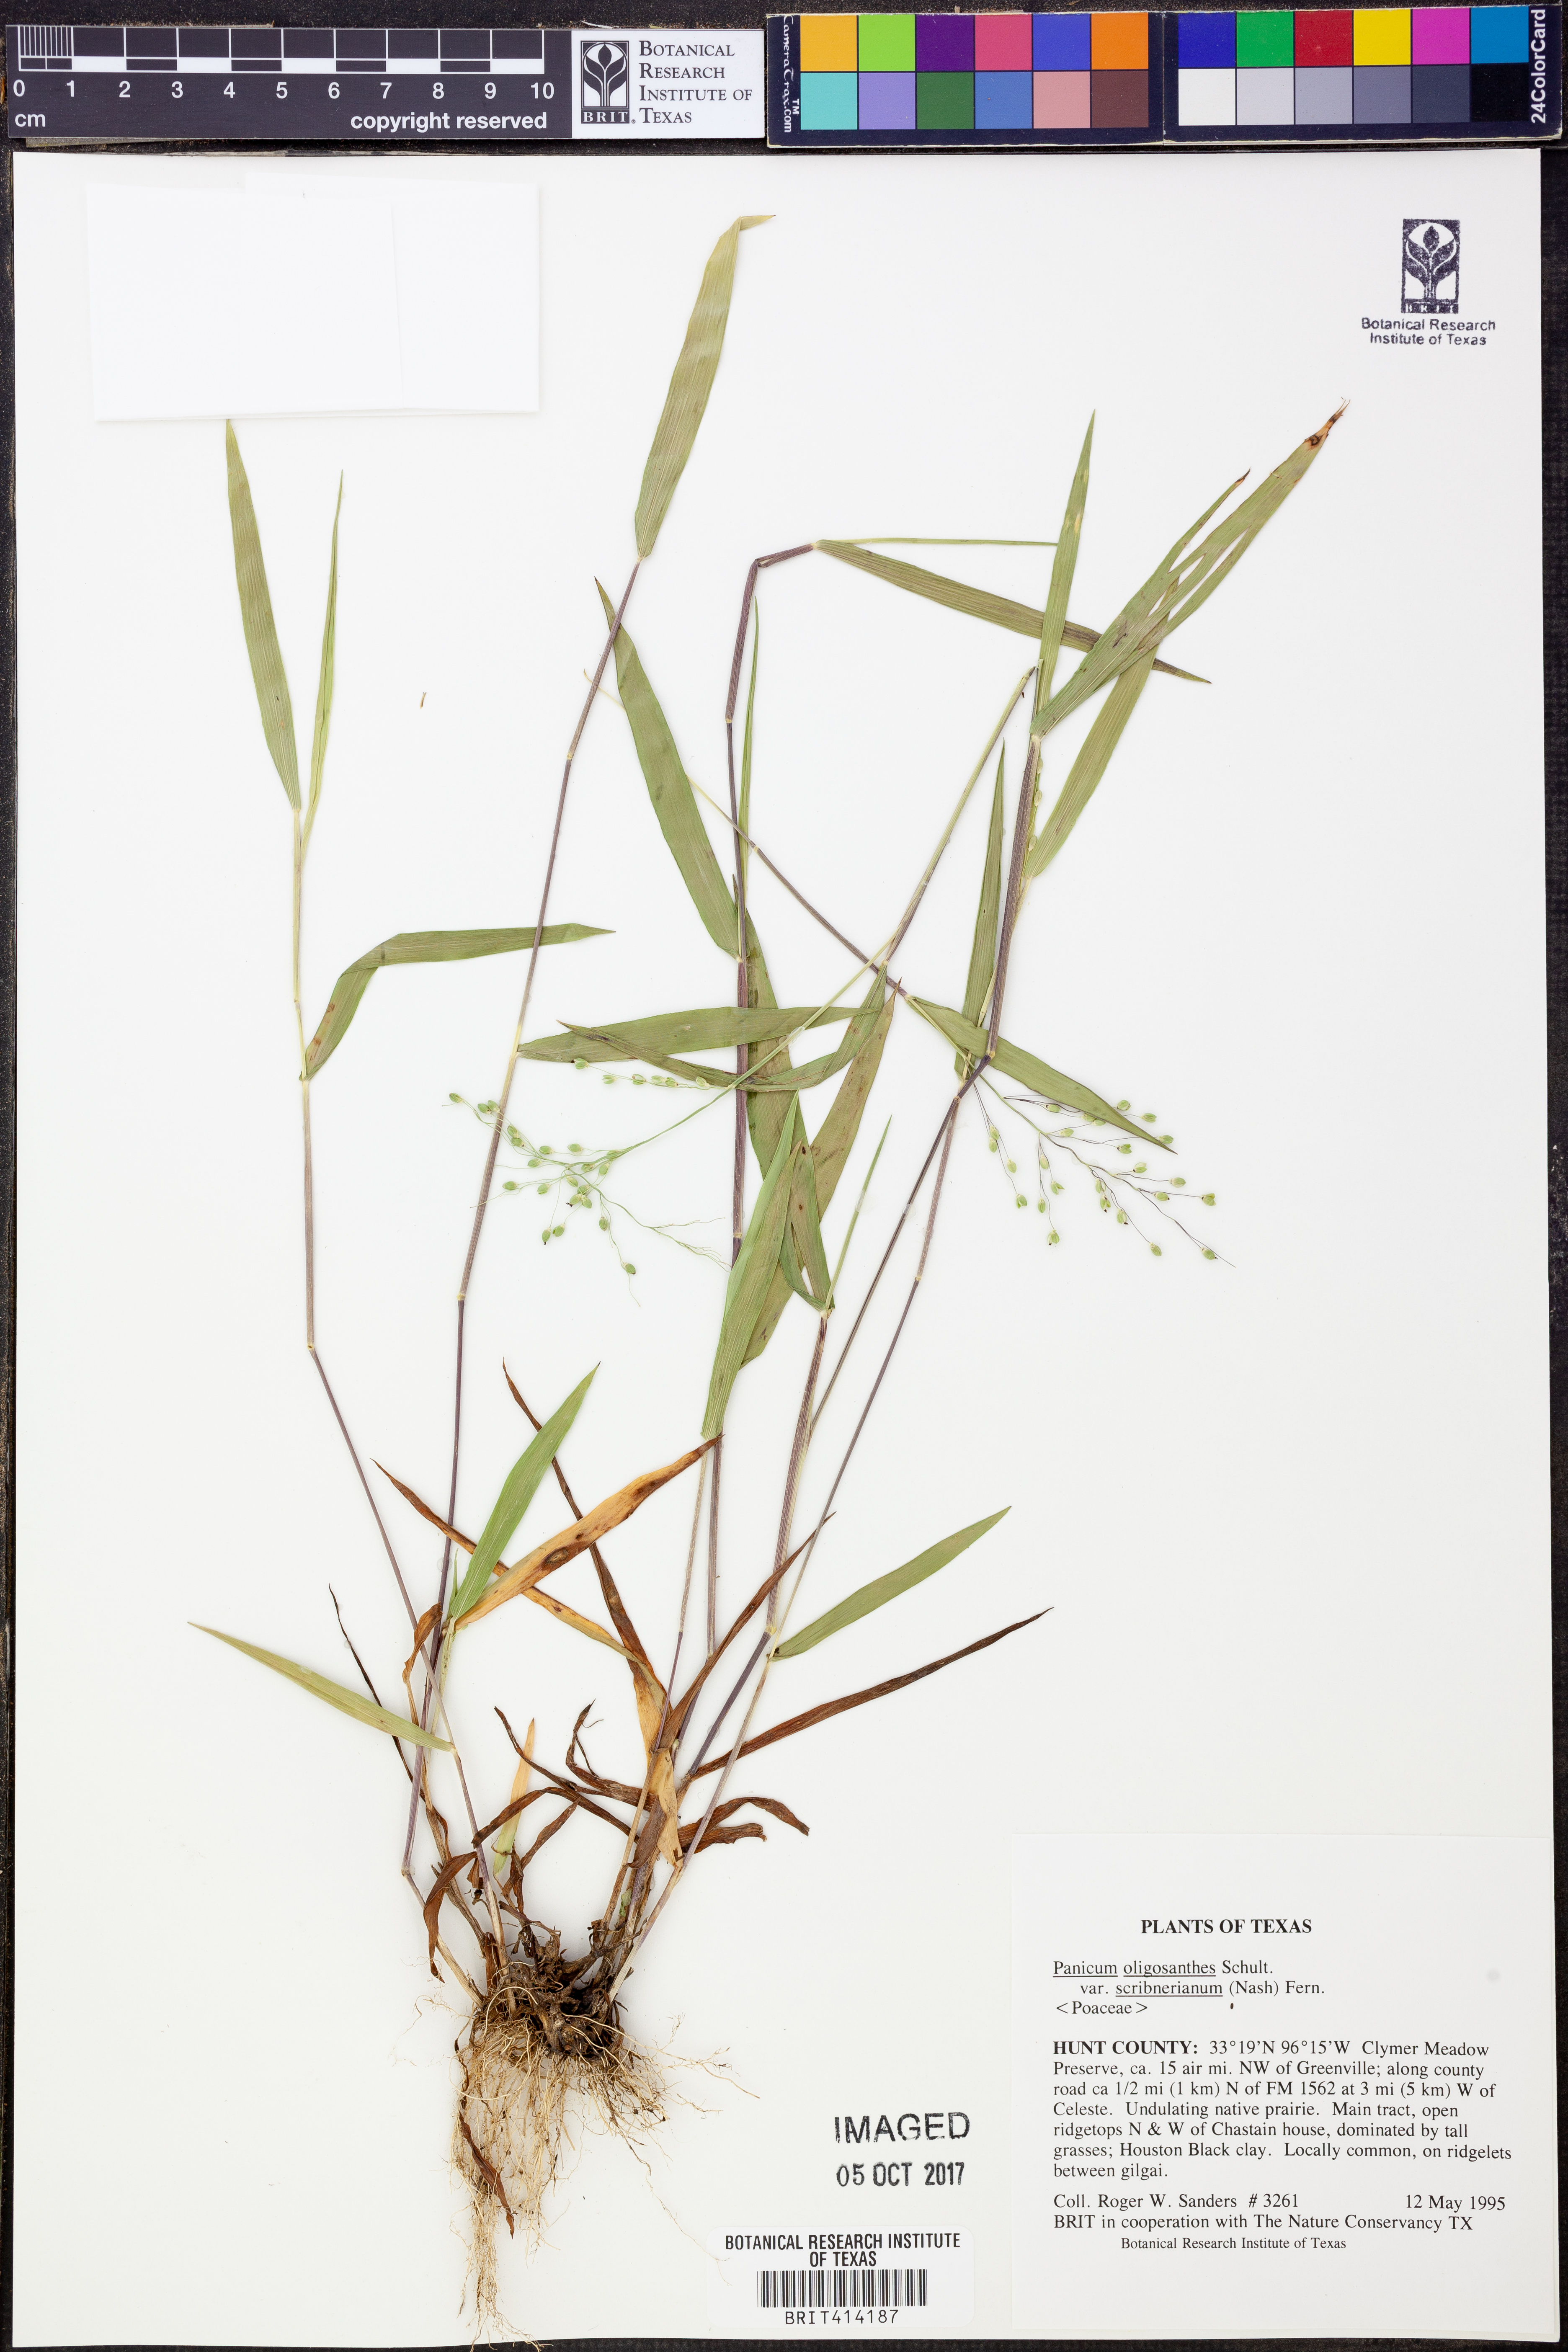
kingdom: Plantae
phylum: Tracheophyta
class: Liliopsida
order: Poales
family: Poaceae
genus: Dichanthelium
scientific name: Dichanthelium scribnerianum
